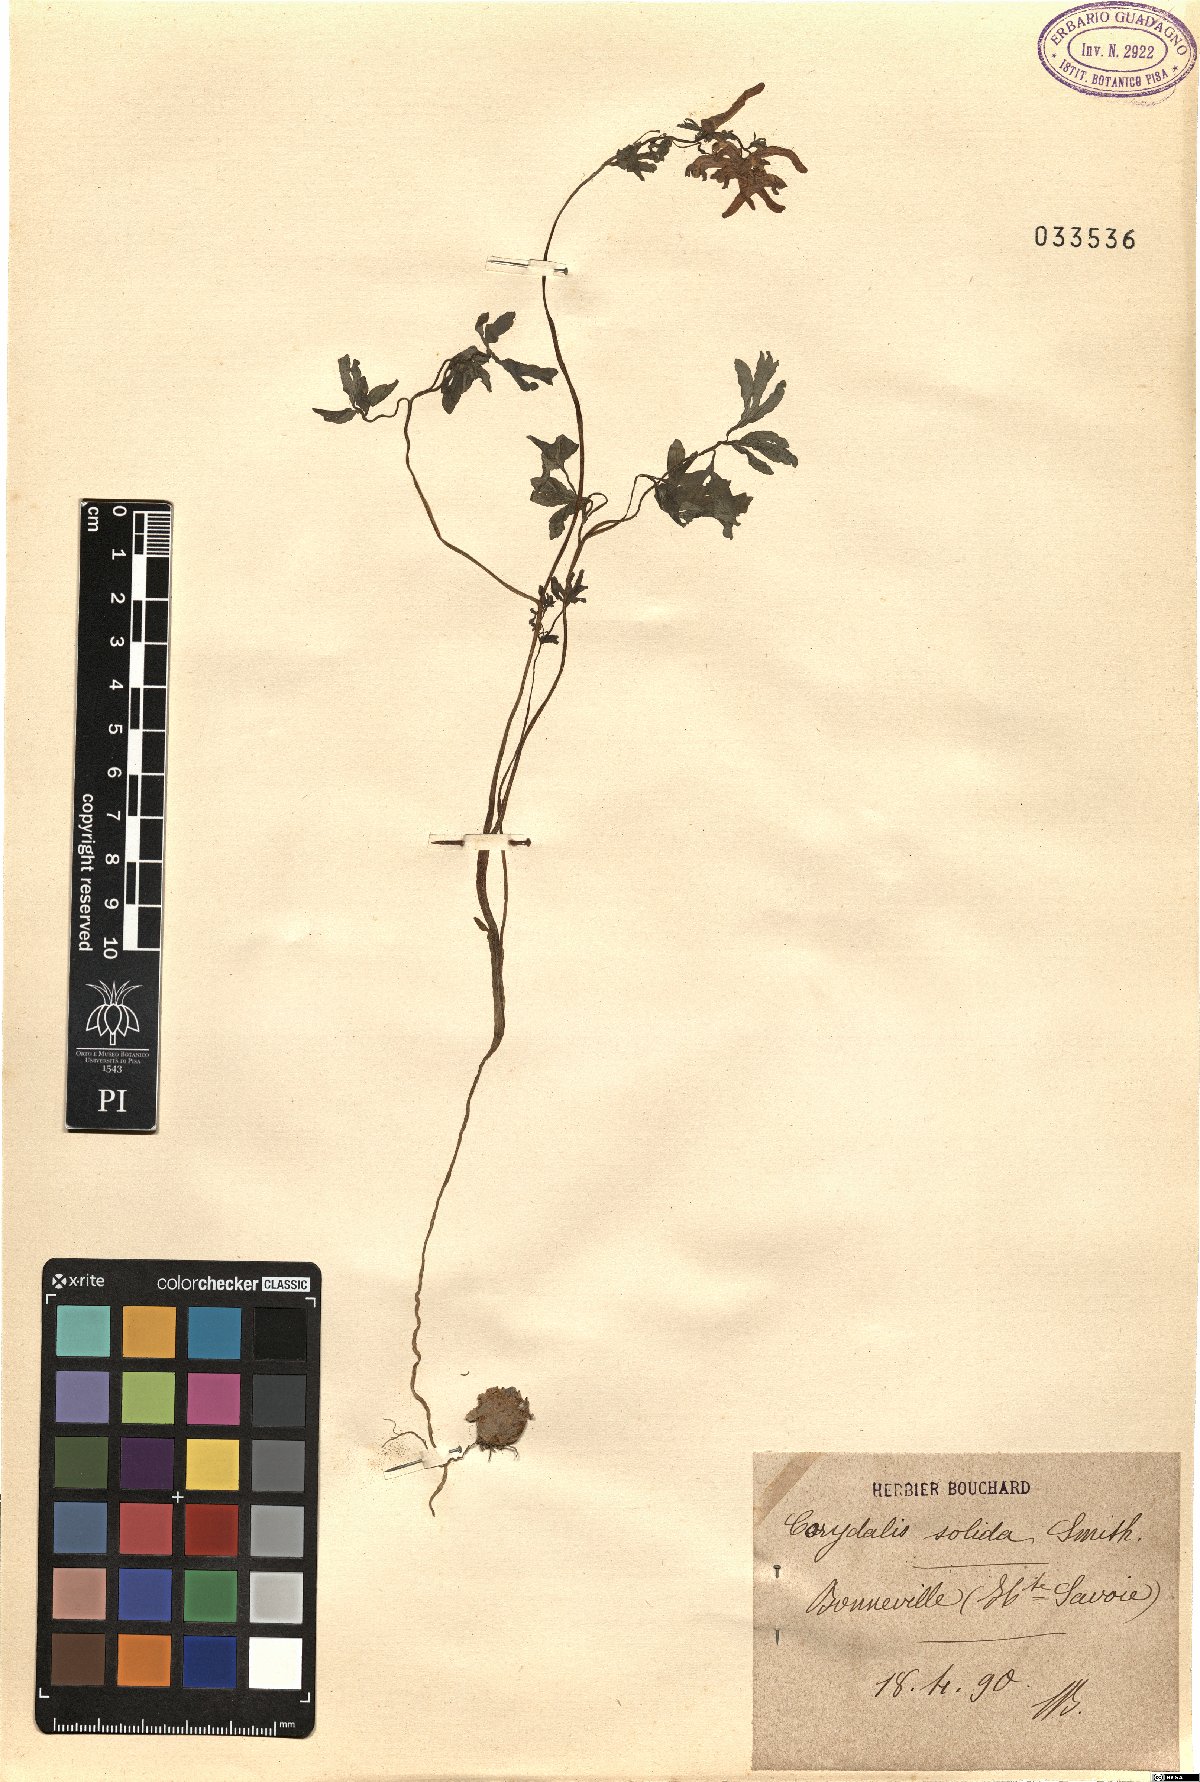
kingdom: Plantae
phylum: Tracheophyta
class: Magnoliopsida
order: Ranunculales
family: Papaveraceae
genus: Corydalis
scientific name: Corydalis solida
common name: Bird-in-a-bush
